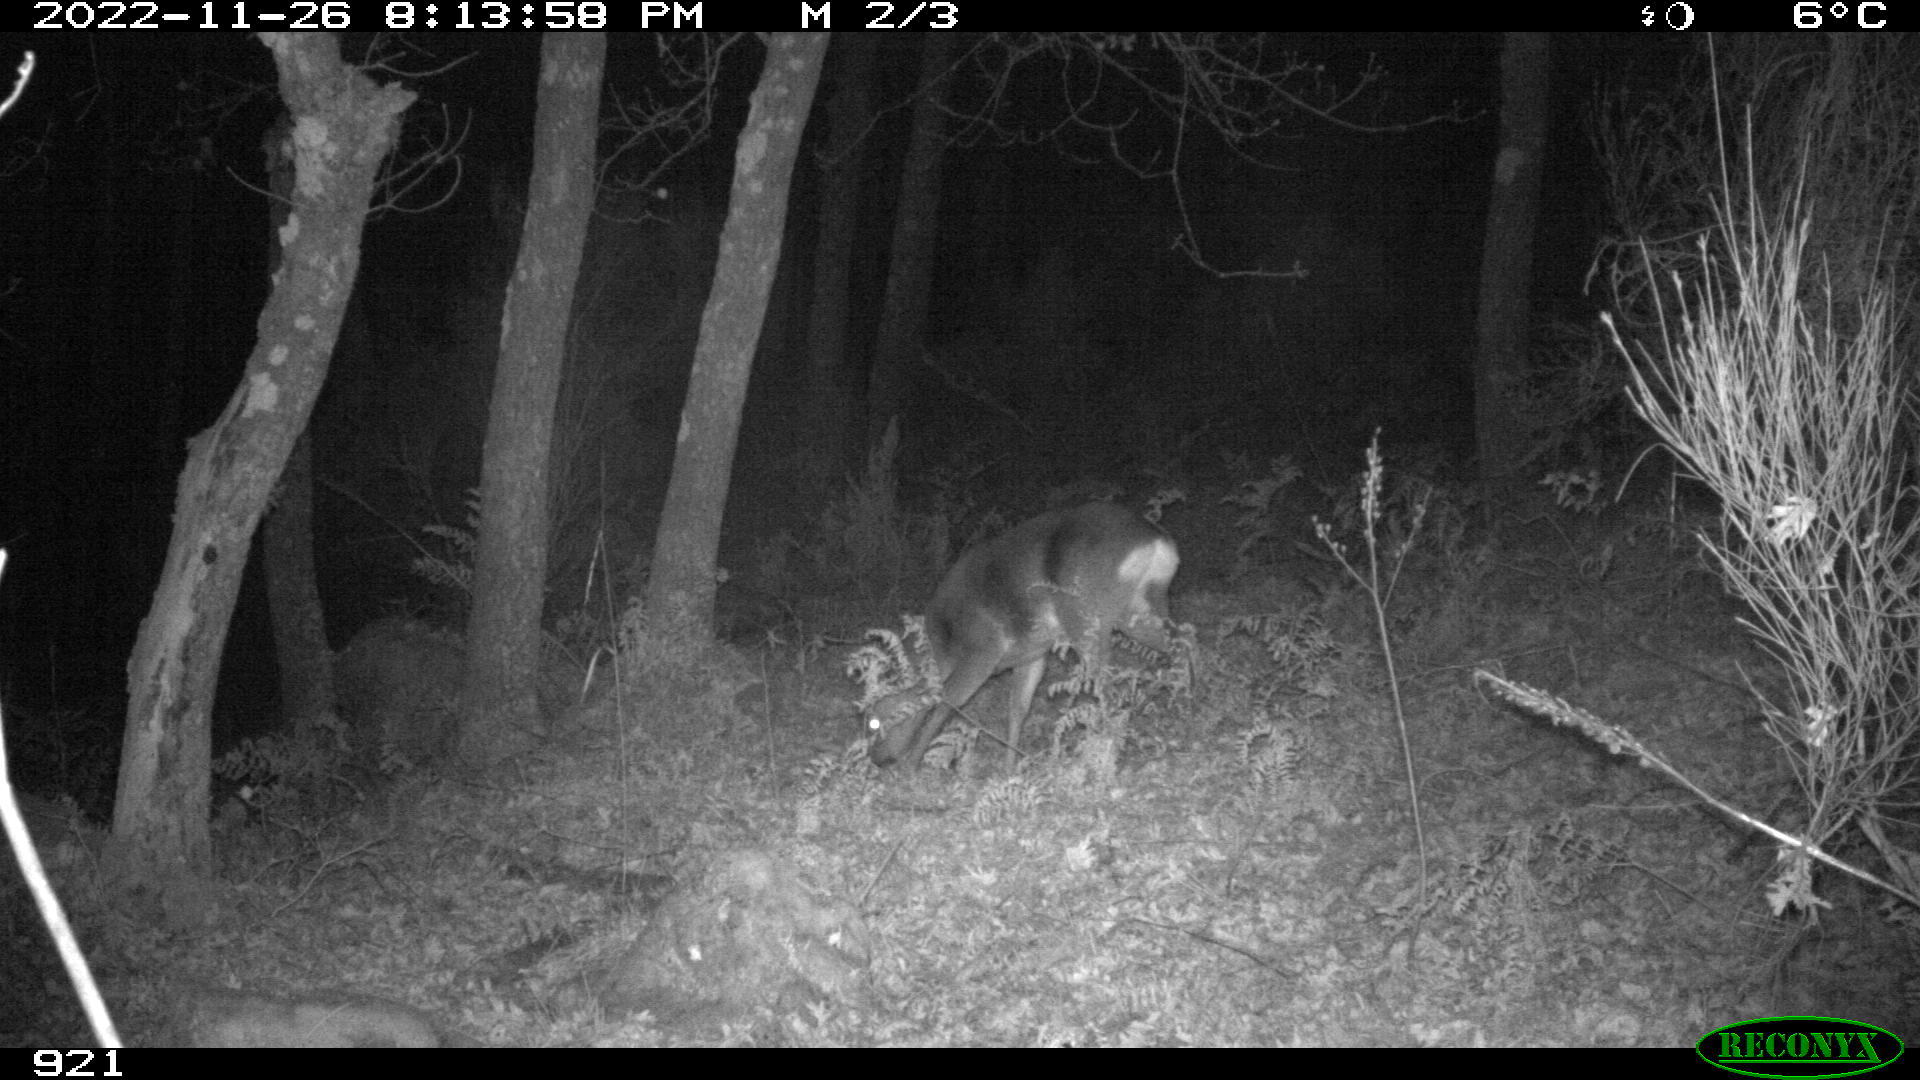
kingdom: Animalia
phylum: Chordata
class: Mammalia
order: Artiodactyla
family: Cervidae
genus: Capreolus
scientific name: Capreolus capreolus
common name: Western roe deer
